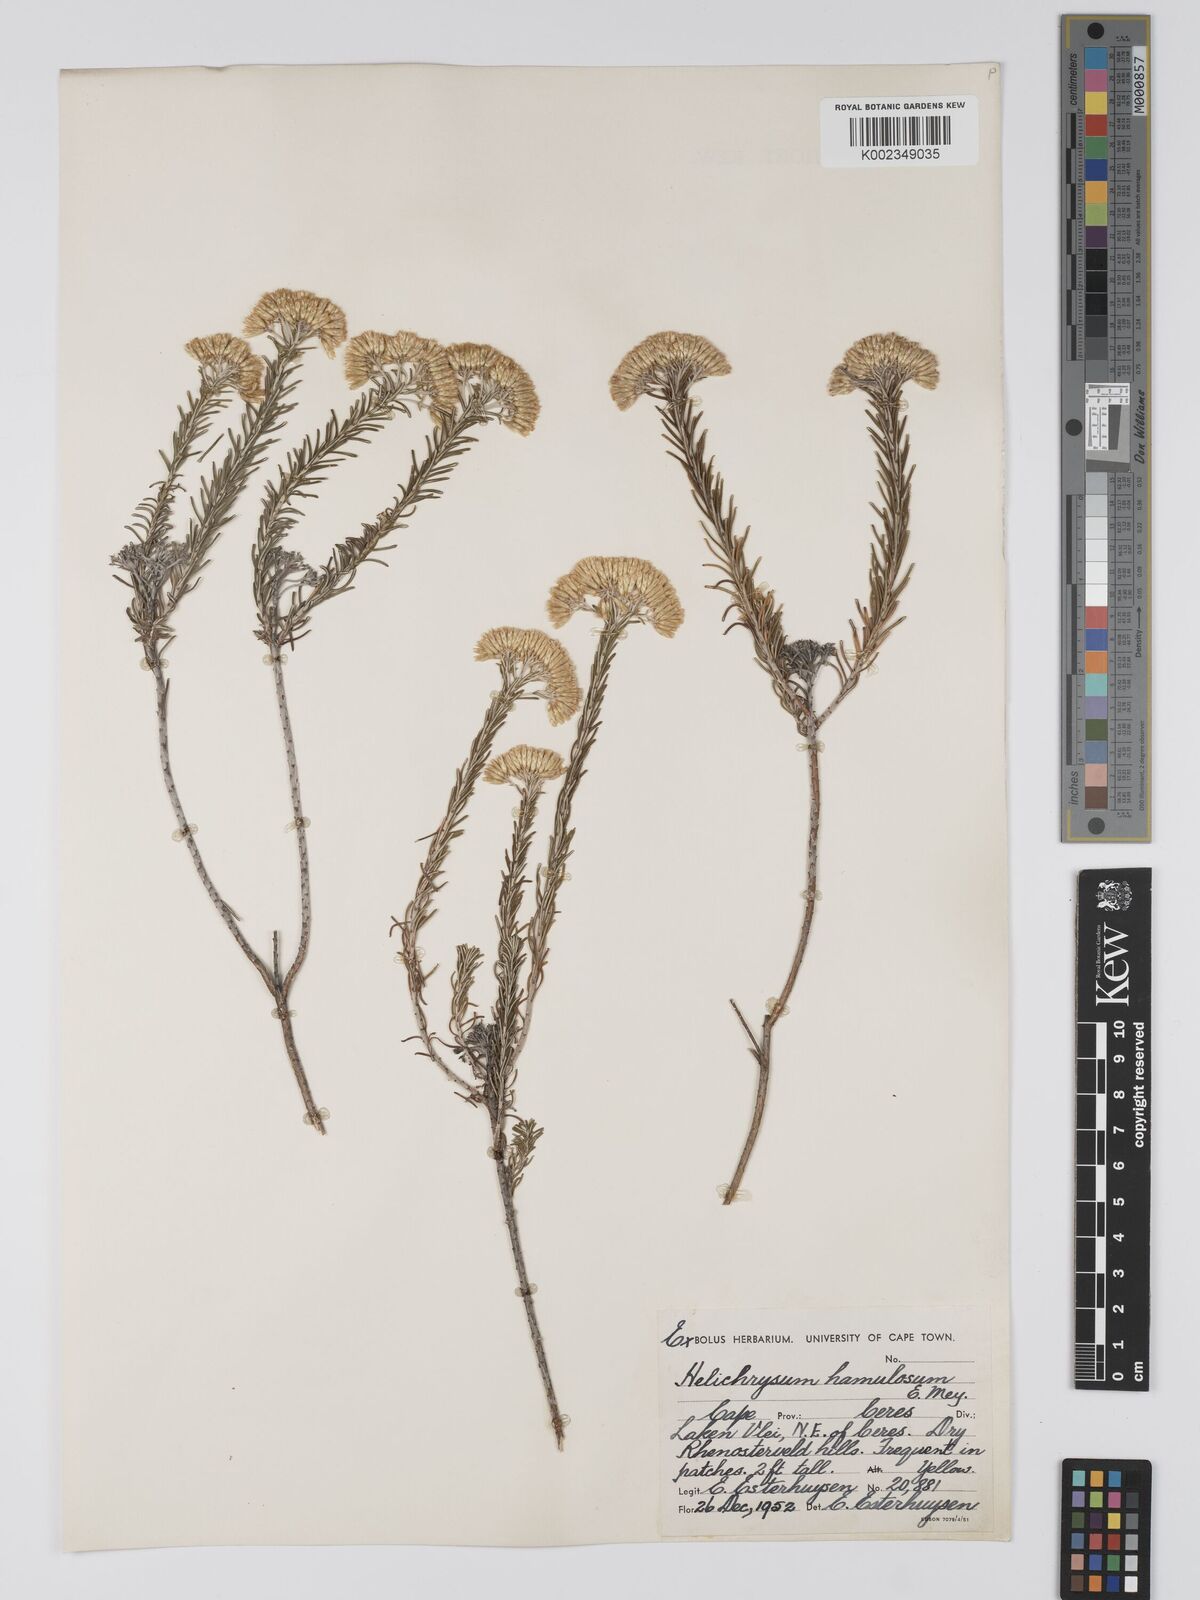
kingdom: Plantae
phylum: Tracheophyta
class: Magnoliopsida
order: Asterales
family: Asteraceae
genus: Helichrysum
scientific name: Helichrysum hamulosum
